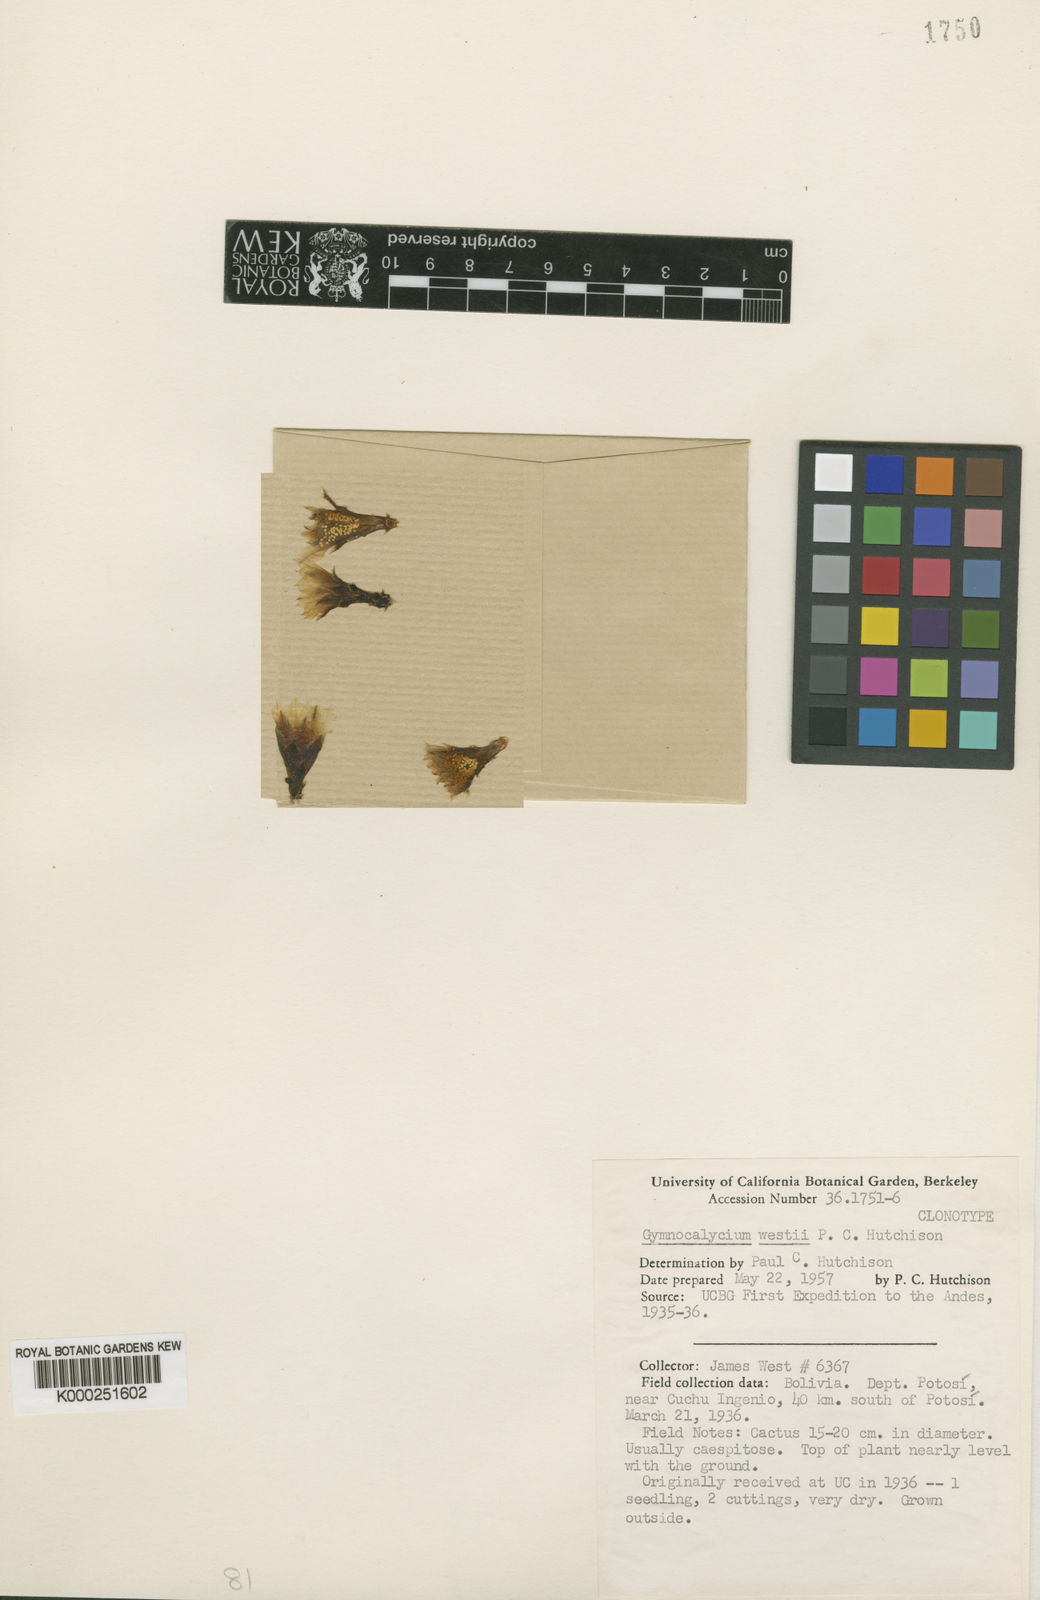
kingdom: Plantae
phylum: Tracheophyta
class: Magnoliopsida
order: Caryophyllales
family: Cactaceae
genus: Weingartia
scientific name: Weingartia fidaiana
